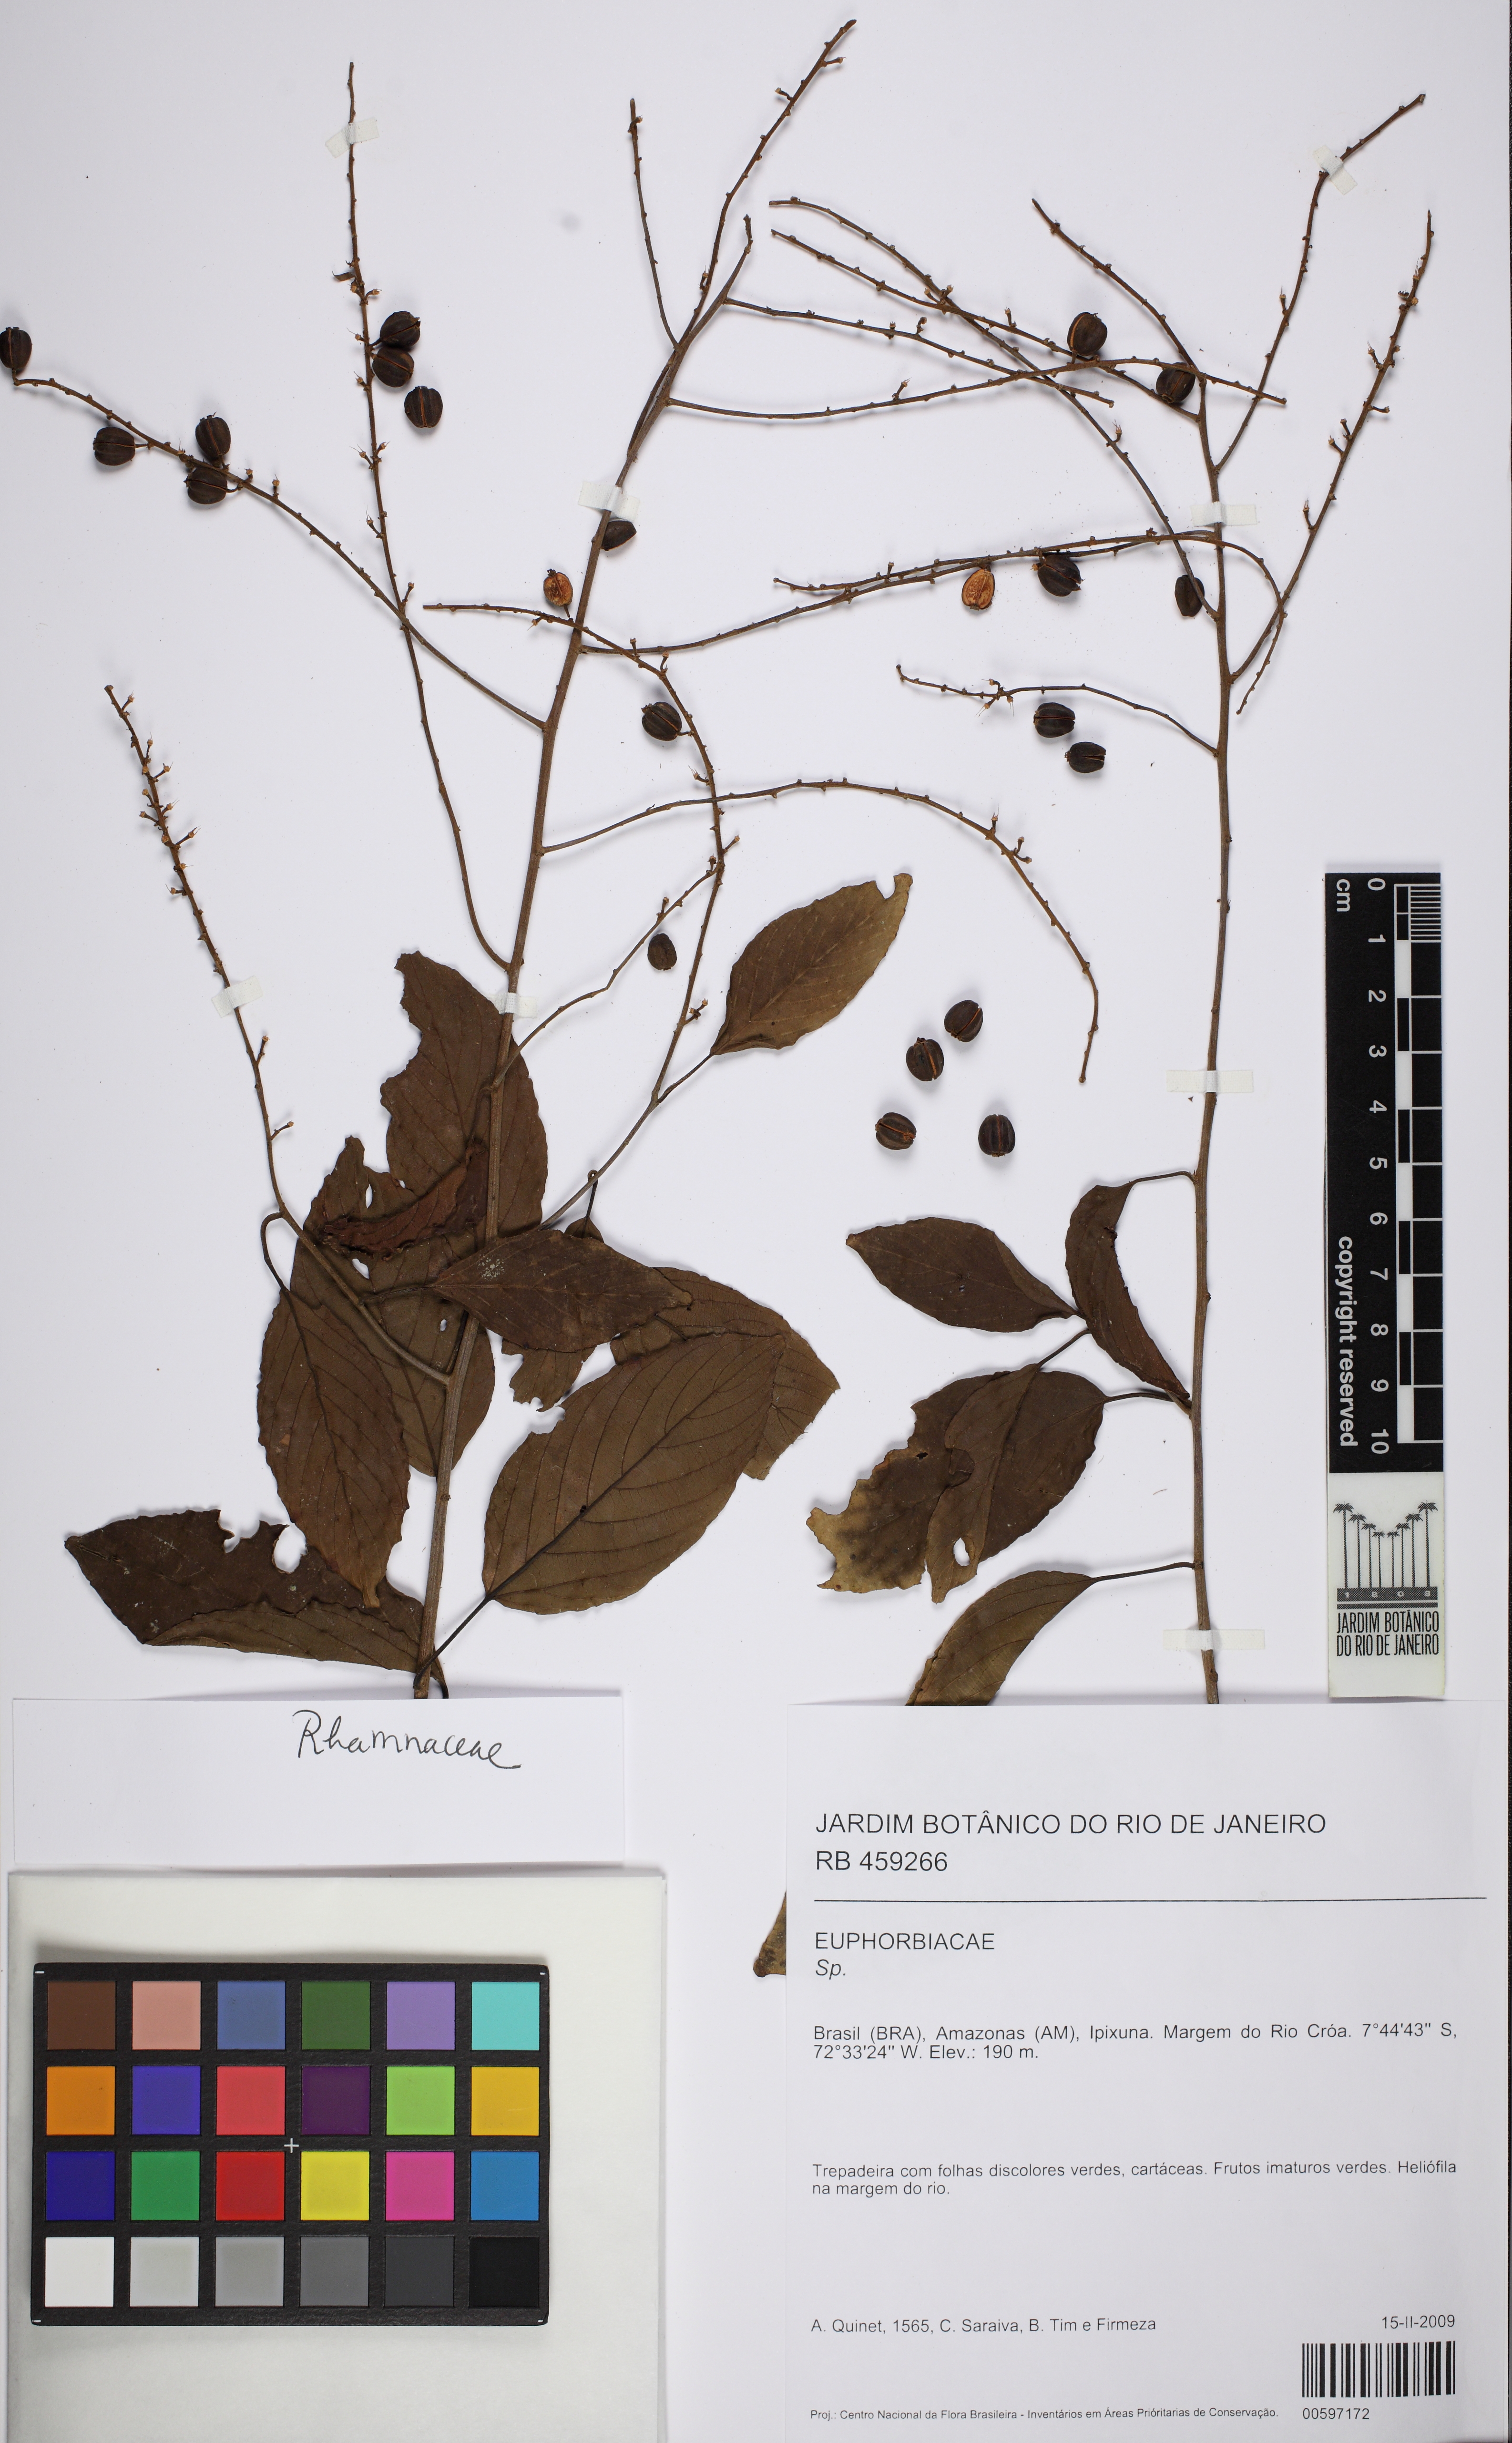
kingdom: Plantae
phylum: Tracheophyta
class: Magnoliopsida
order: Rosales
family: Rhamnaceae
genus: Gouania
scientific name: Gouania
